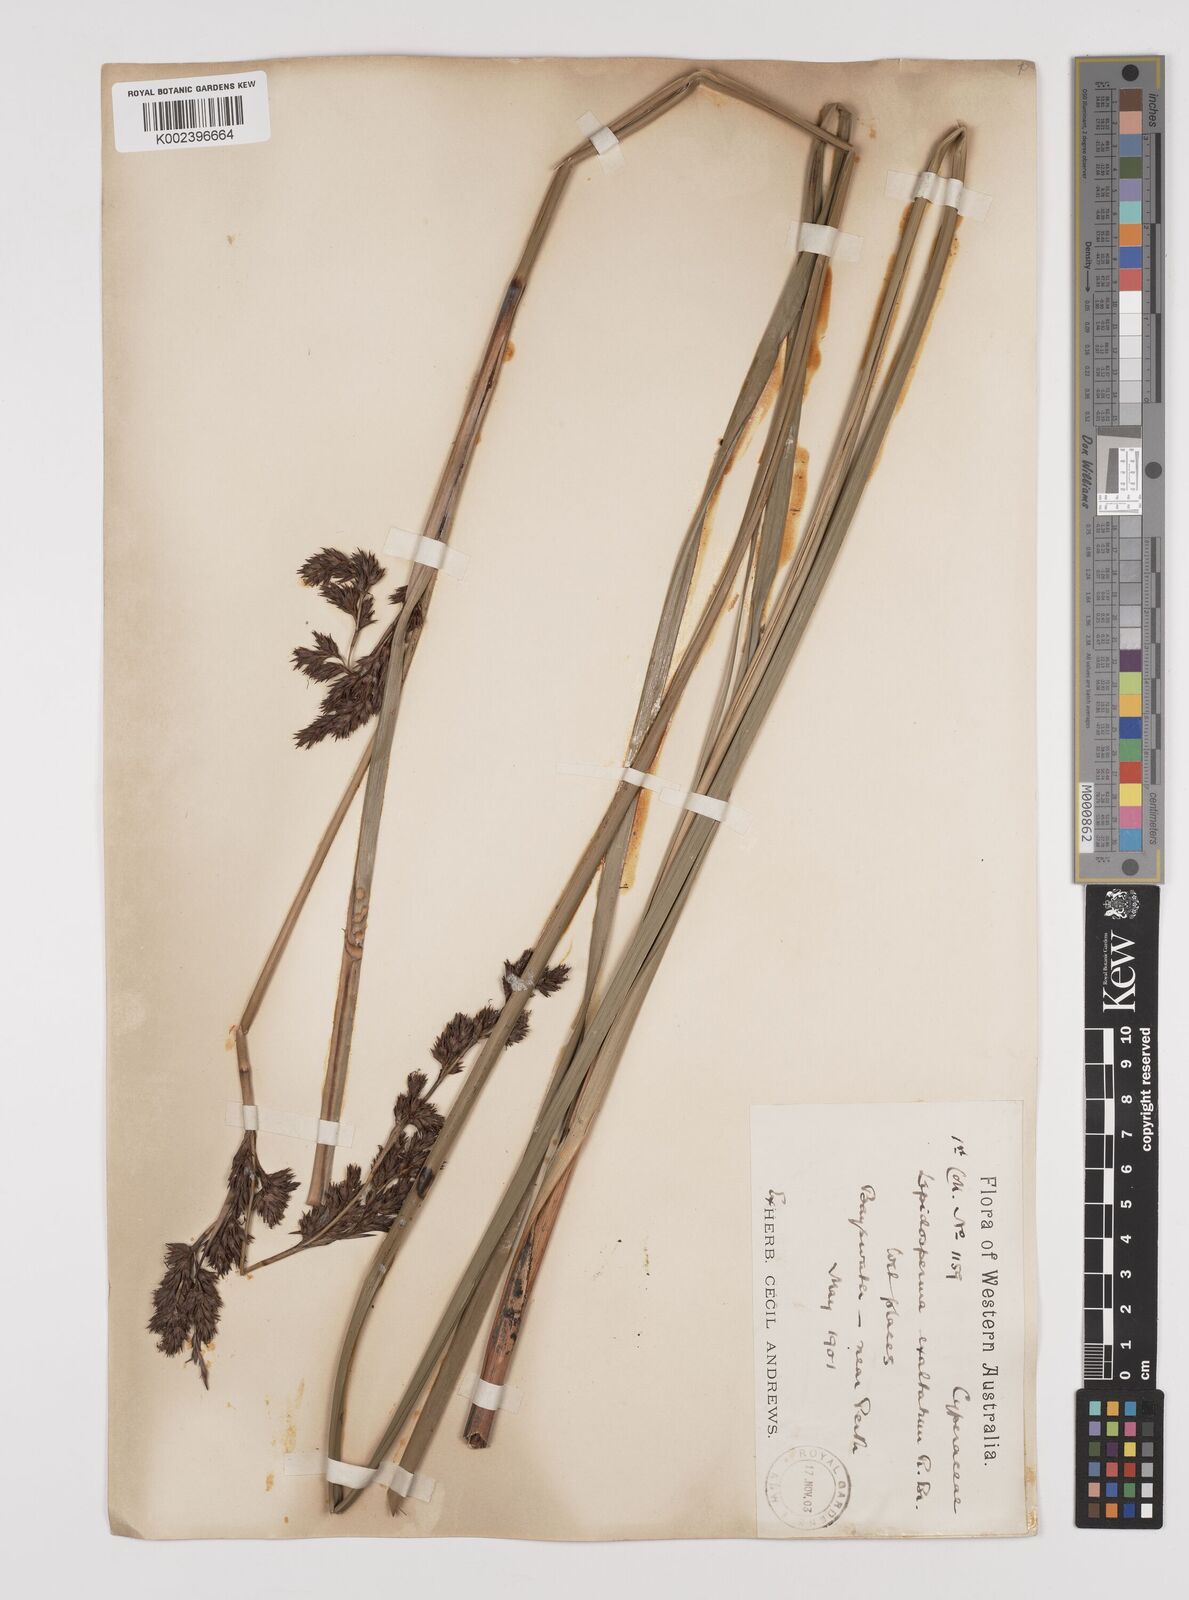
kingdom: Plantae
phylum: Tracheophyta
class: Liliopsida
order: Poales
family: Cyperaceae
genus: Lepidosperma
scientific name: Lepidosperma longitudinale
